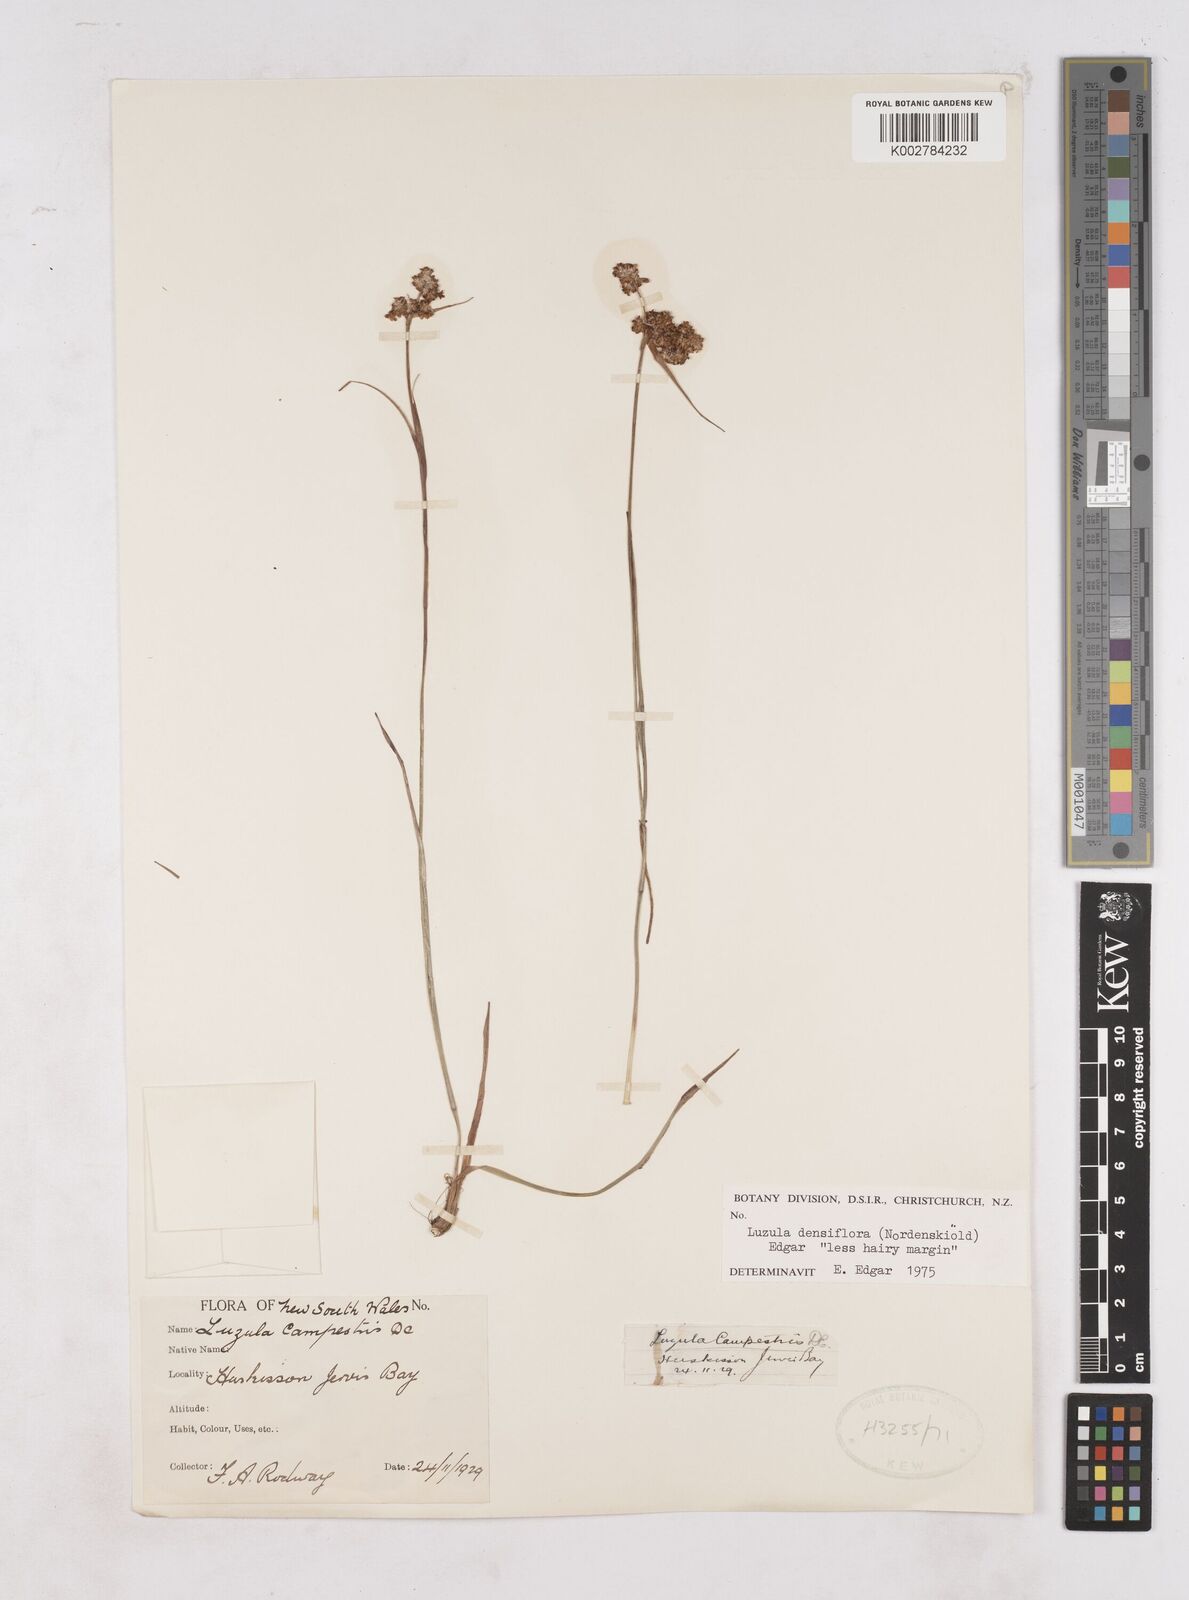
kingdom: Plantae
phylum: Tracheophyta
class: Liliopsida
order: Poales
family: Juncaceae
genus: Luzula
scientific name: Luzula densiflora
